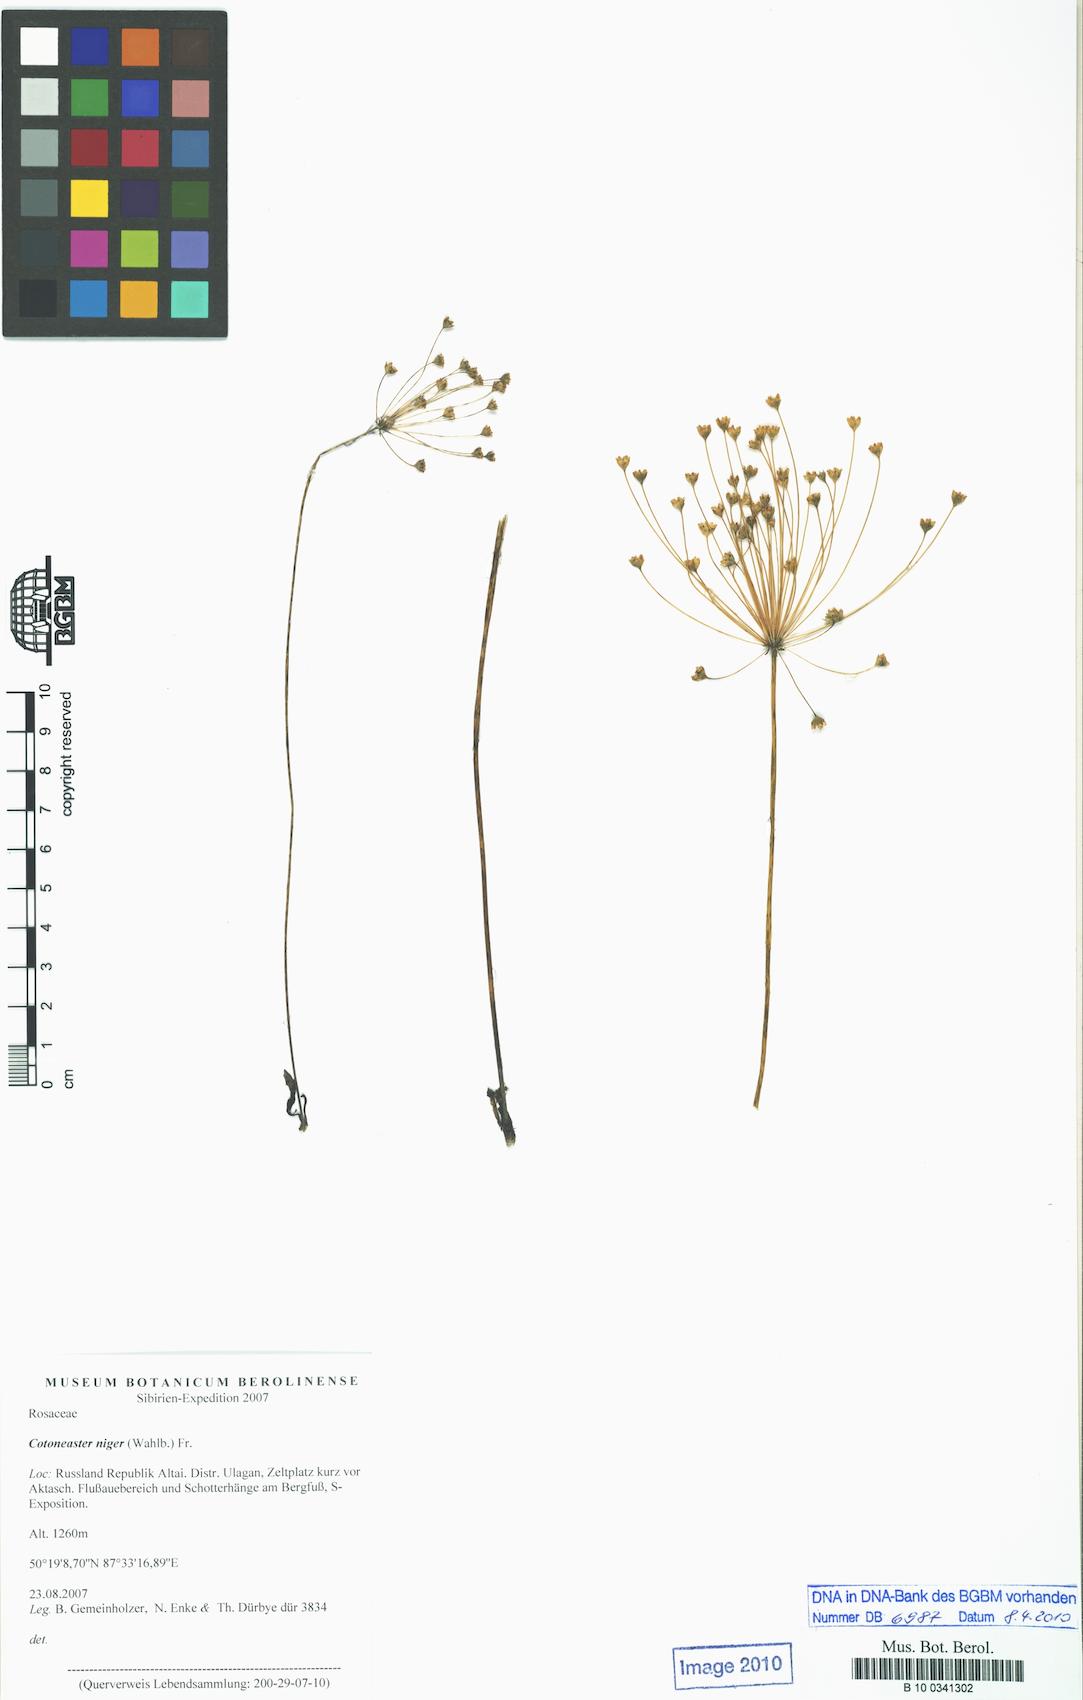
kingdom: Plantae
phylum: Tracheophyta
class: Magnoliopsida
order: Rosales
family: Rosaceae
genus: Cotoneaster
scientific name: Cotoneaster niger
